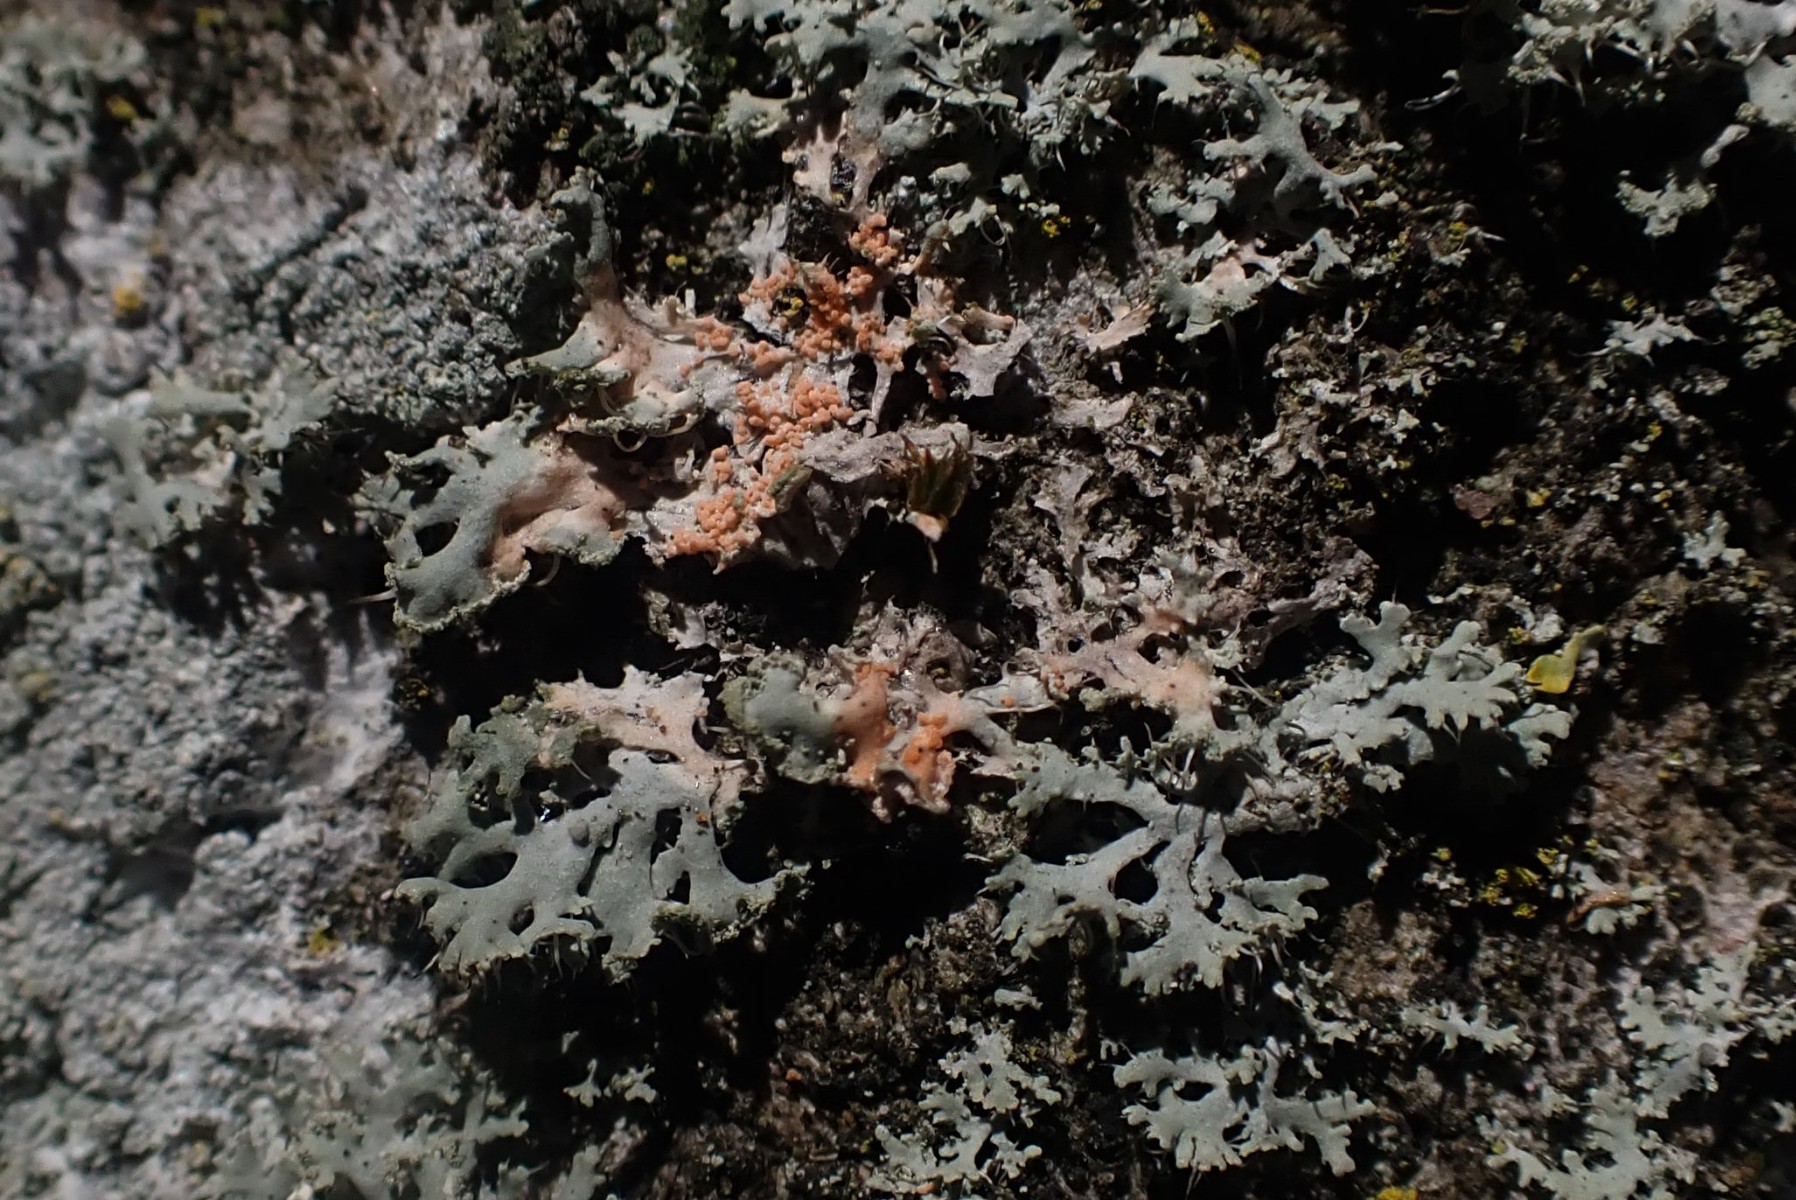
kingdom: Fungi
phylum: Basidiomycota
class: Agaricomycetes
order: Corticiales
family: Corticiaceae
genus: Erythricium
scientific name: Erythricium aurantiacum
